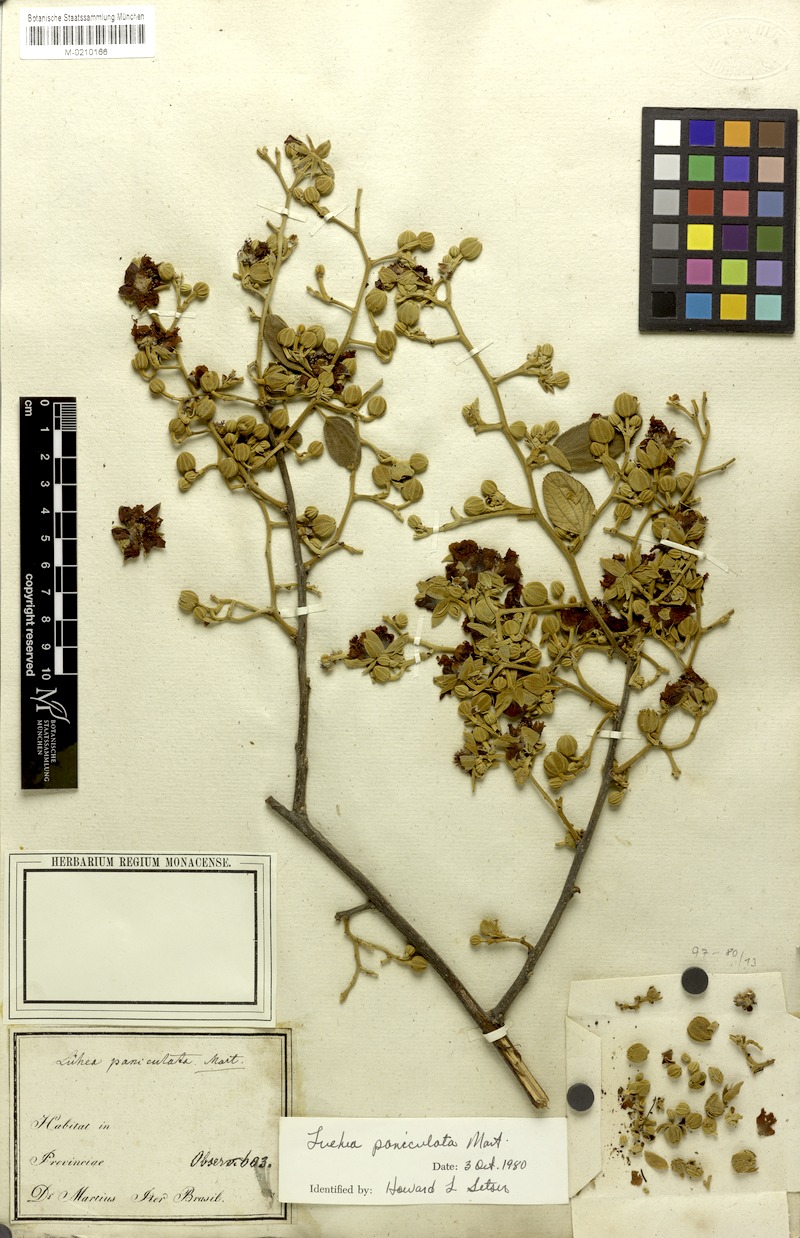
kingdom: Plantae
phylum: Tracheophyta
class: Magnoliopsida
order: Malvales
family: Malvaceae
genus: Luehea
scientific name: Luehea paniculata
